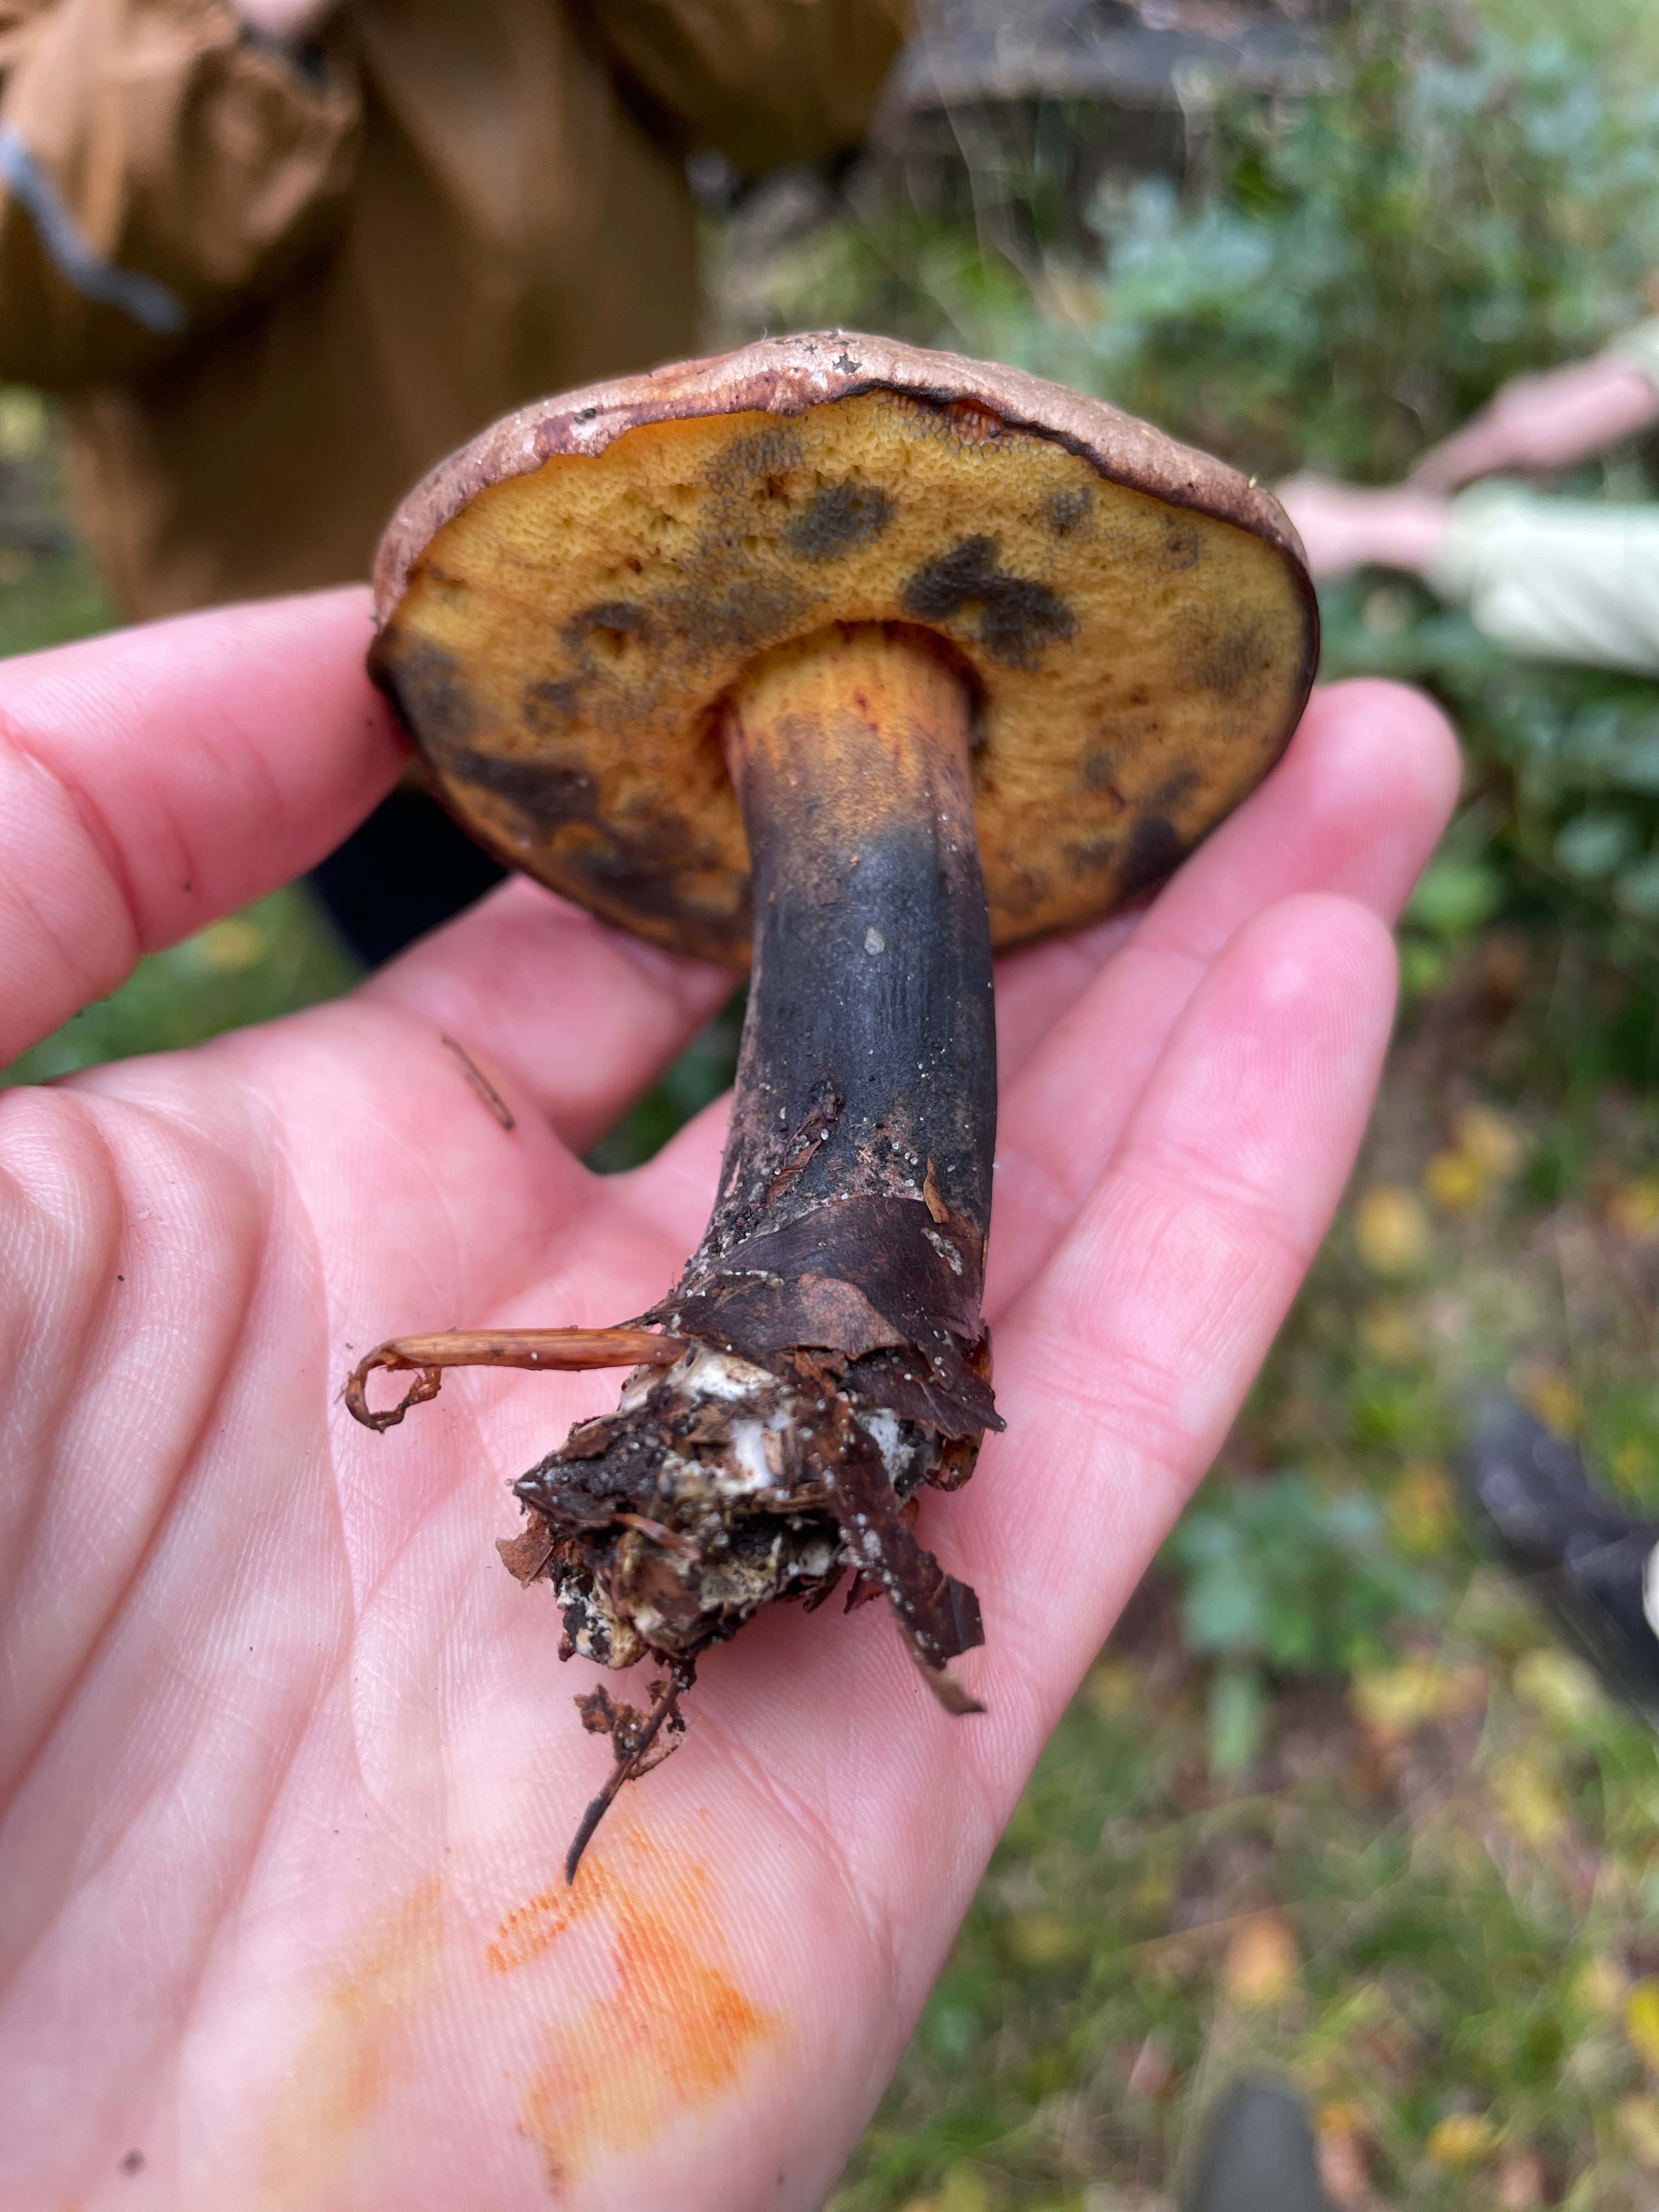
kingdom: Fungi
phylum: Basidiomycota
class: Agaricomycetes
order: Boletales
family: Boletaceae
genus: Cyanoboletus
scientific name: Cyanoboletus pulverulentus
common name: sortblånende rørhat
